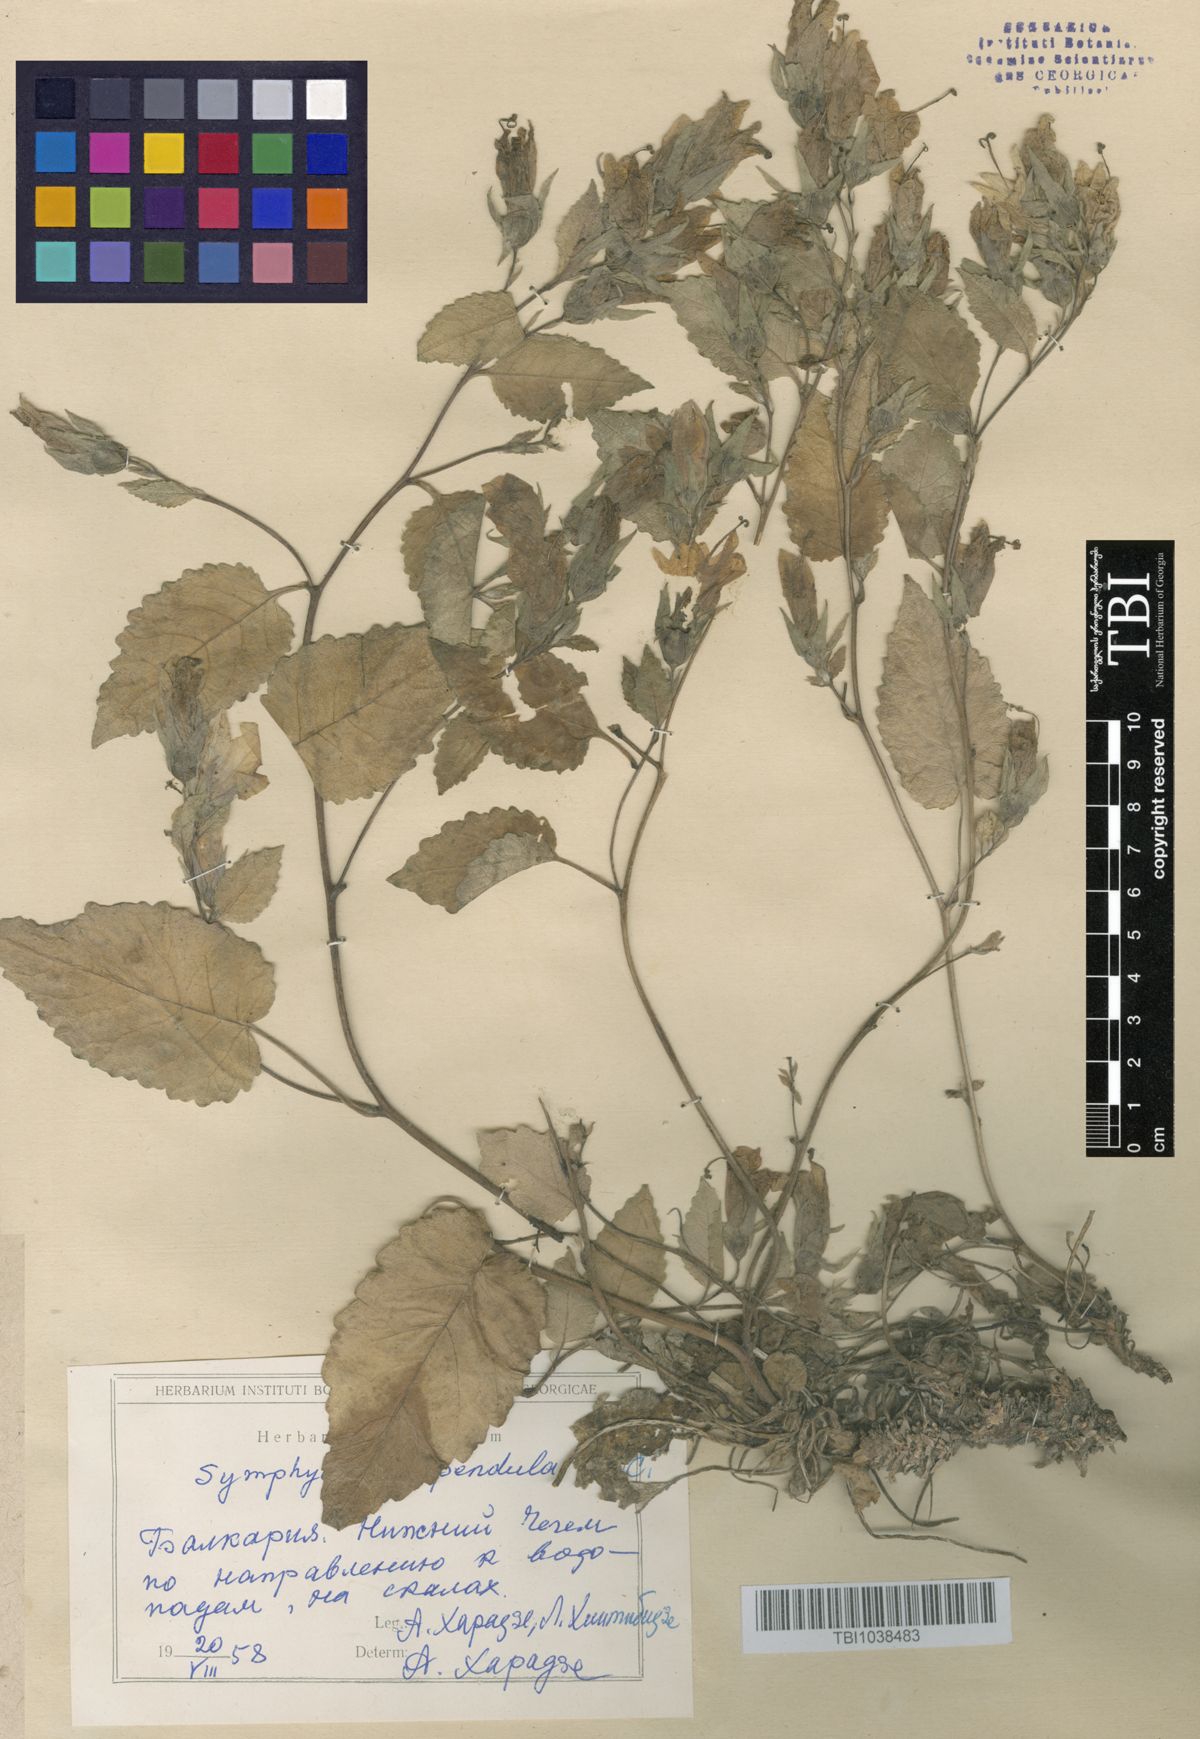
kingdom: Plantae
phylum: Tracheophyta
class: Magnoliopsida
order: Asterales
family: Campanulaceae
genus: Campanula
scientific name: Campanula pendula
